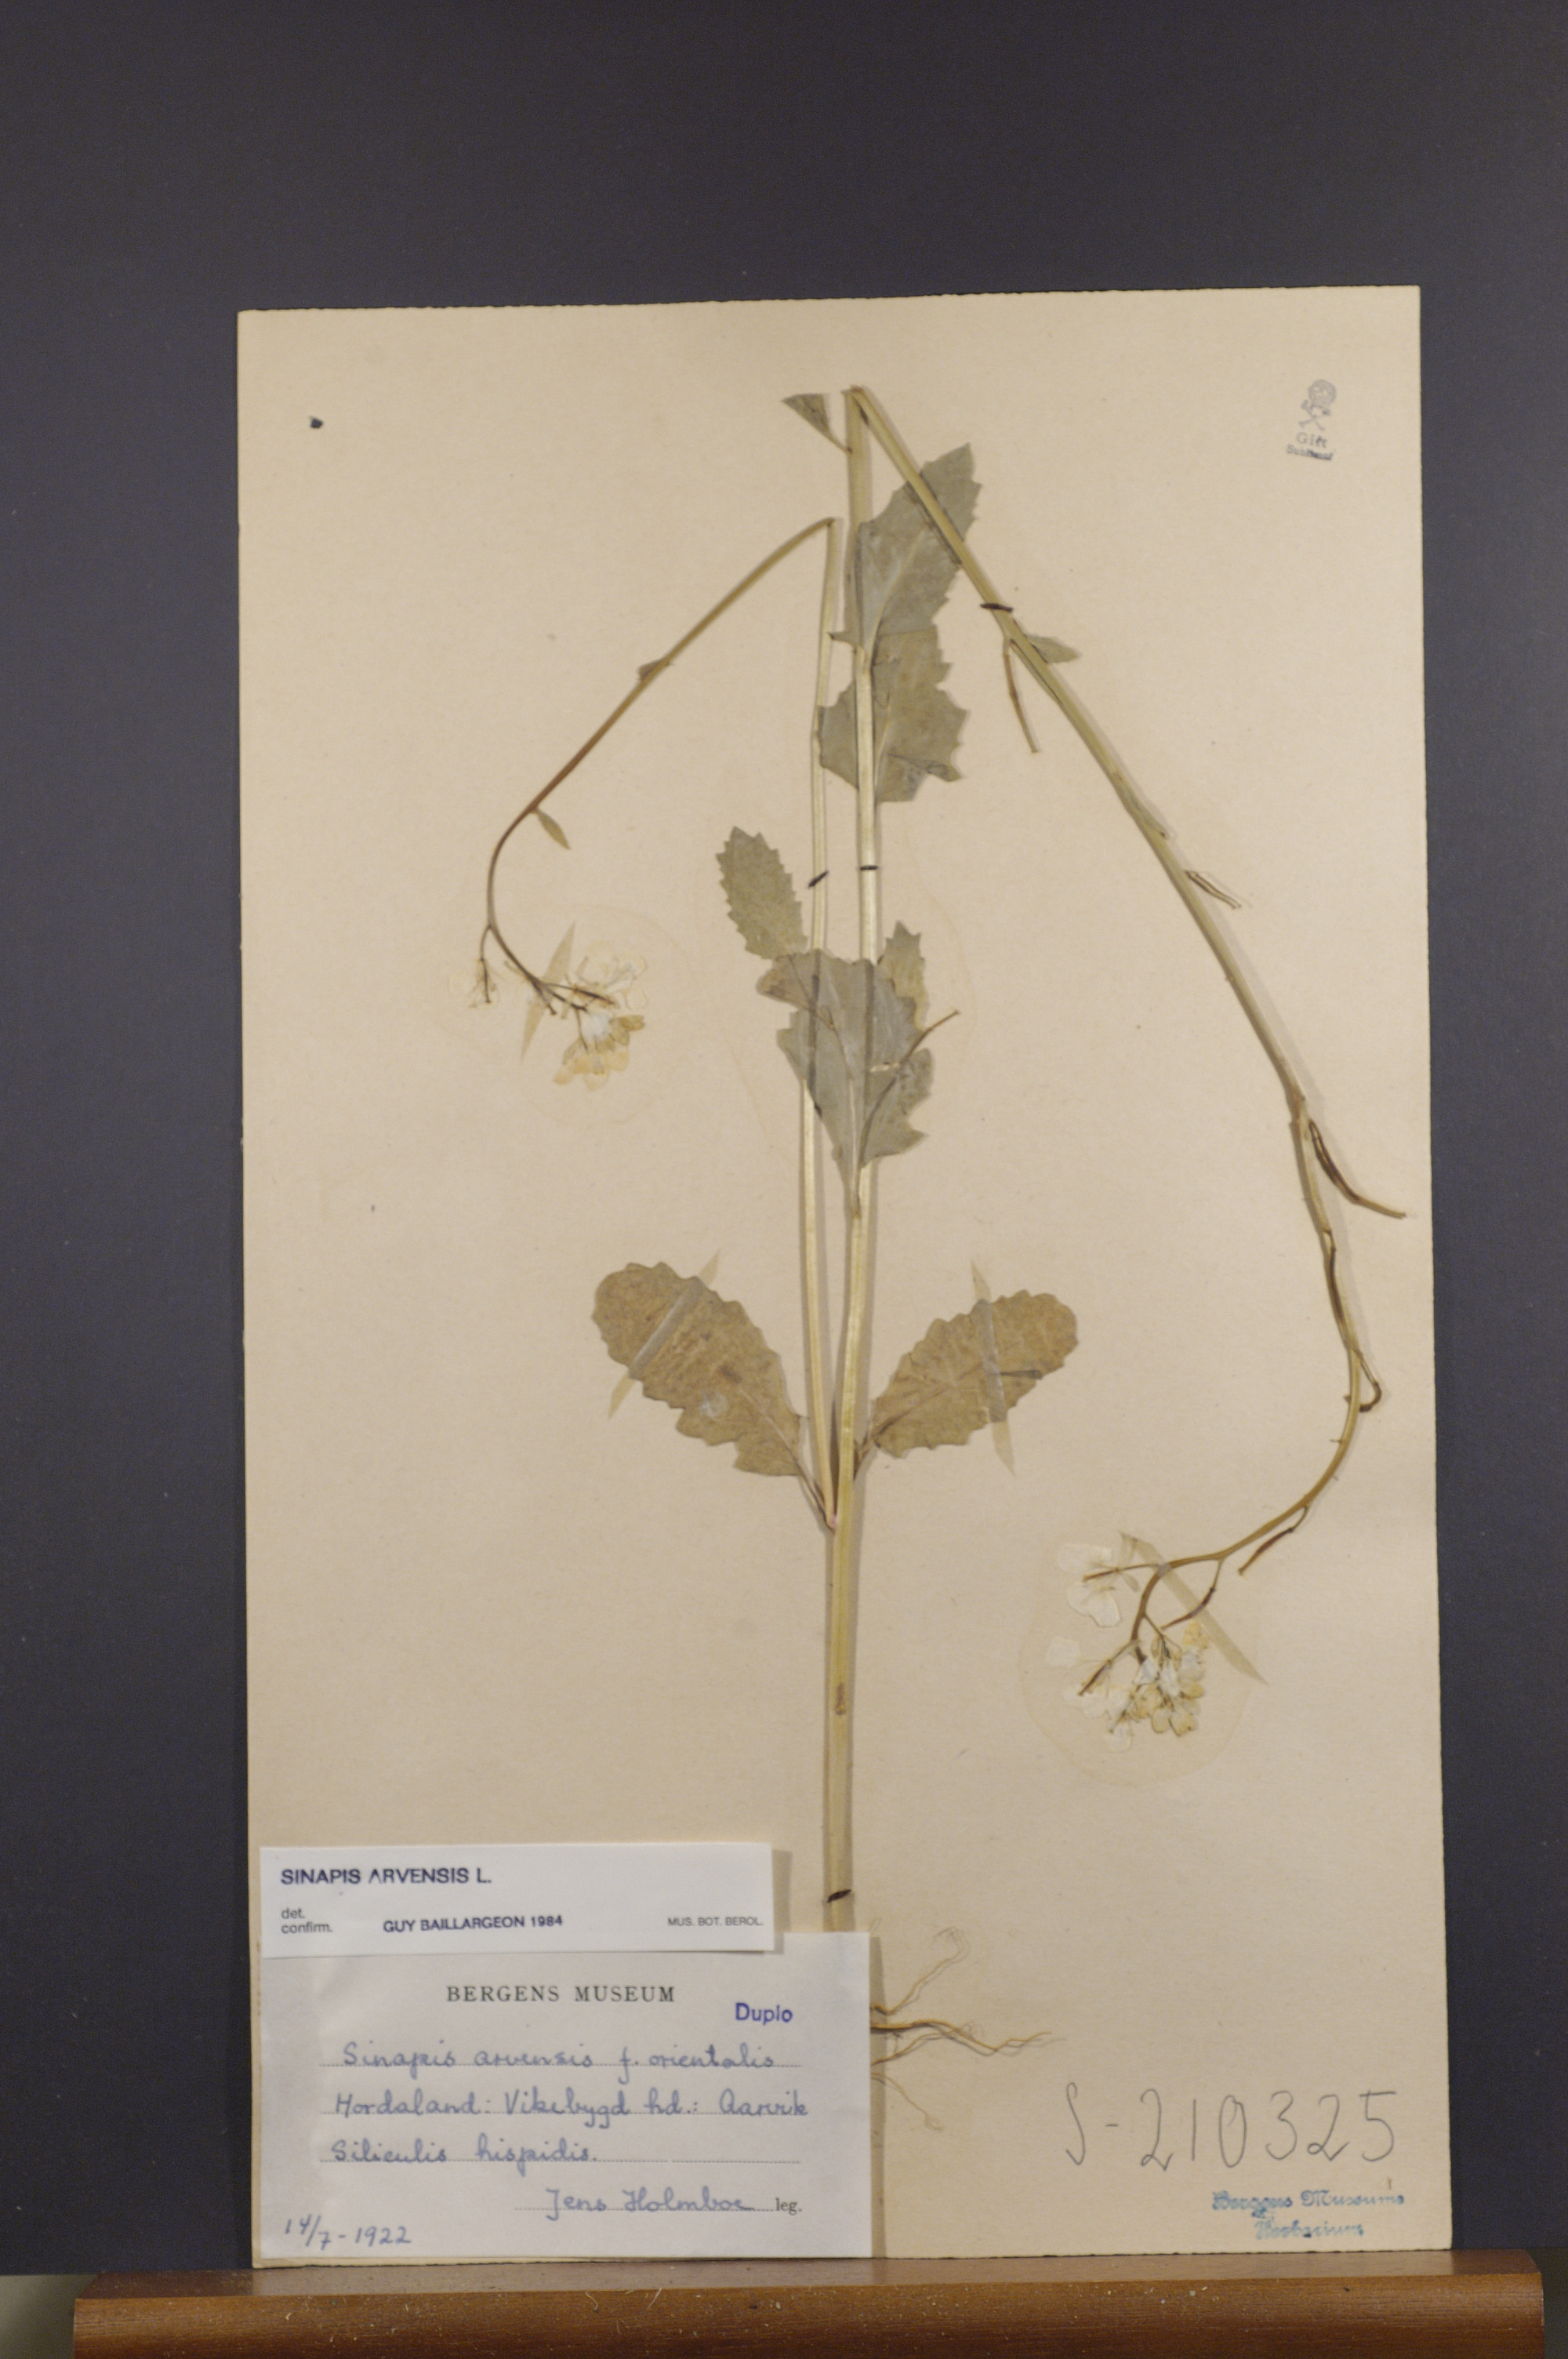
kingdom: Plantae
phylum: Tracheophyta
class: Magnoliopsida
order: Brassicales
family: Brassicaceae
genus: Sinapis
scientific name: Sinapis arvensis
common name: Charlock
